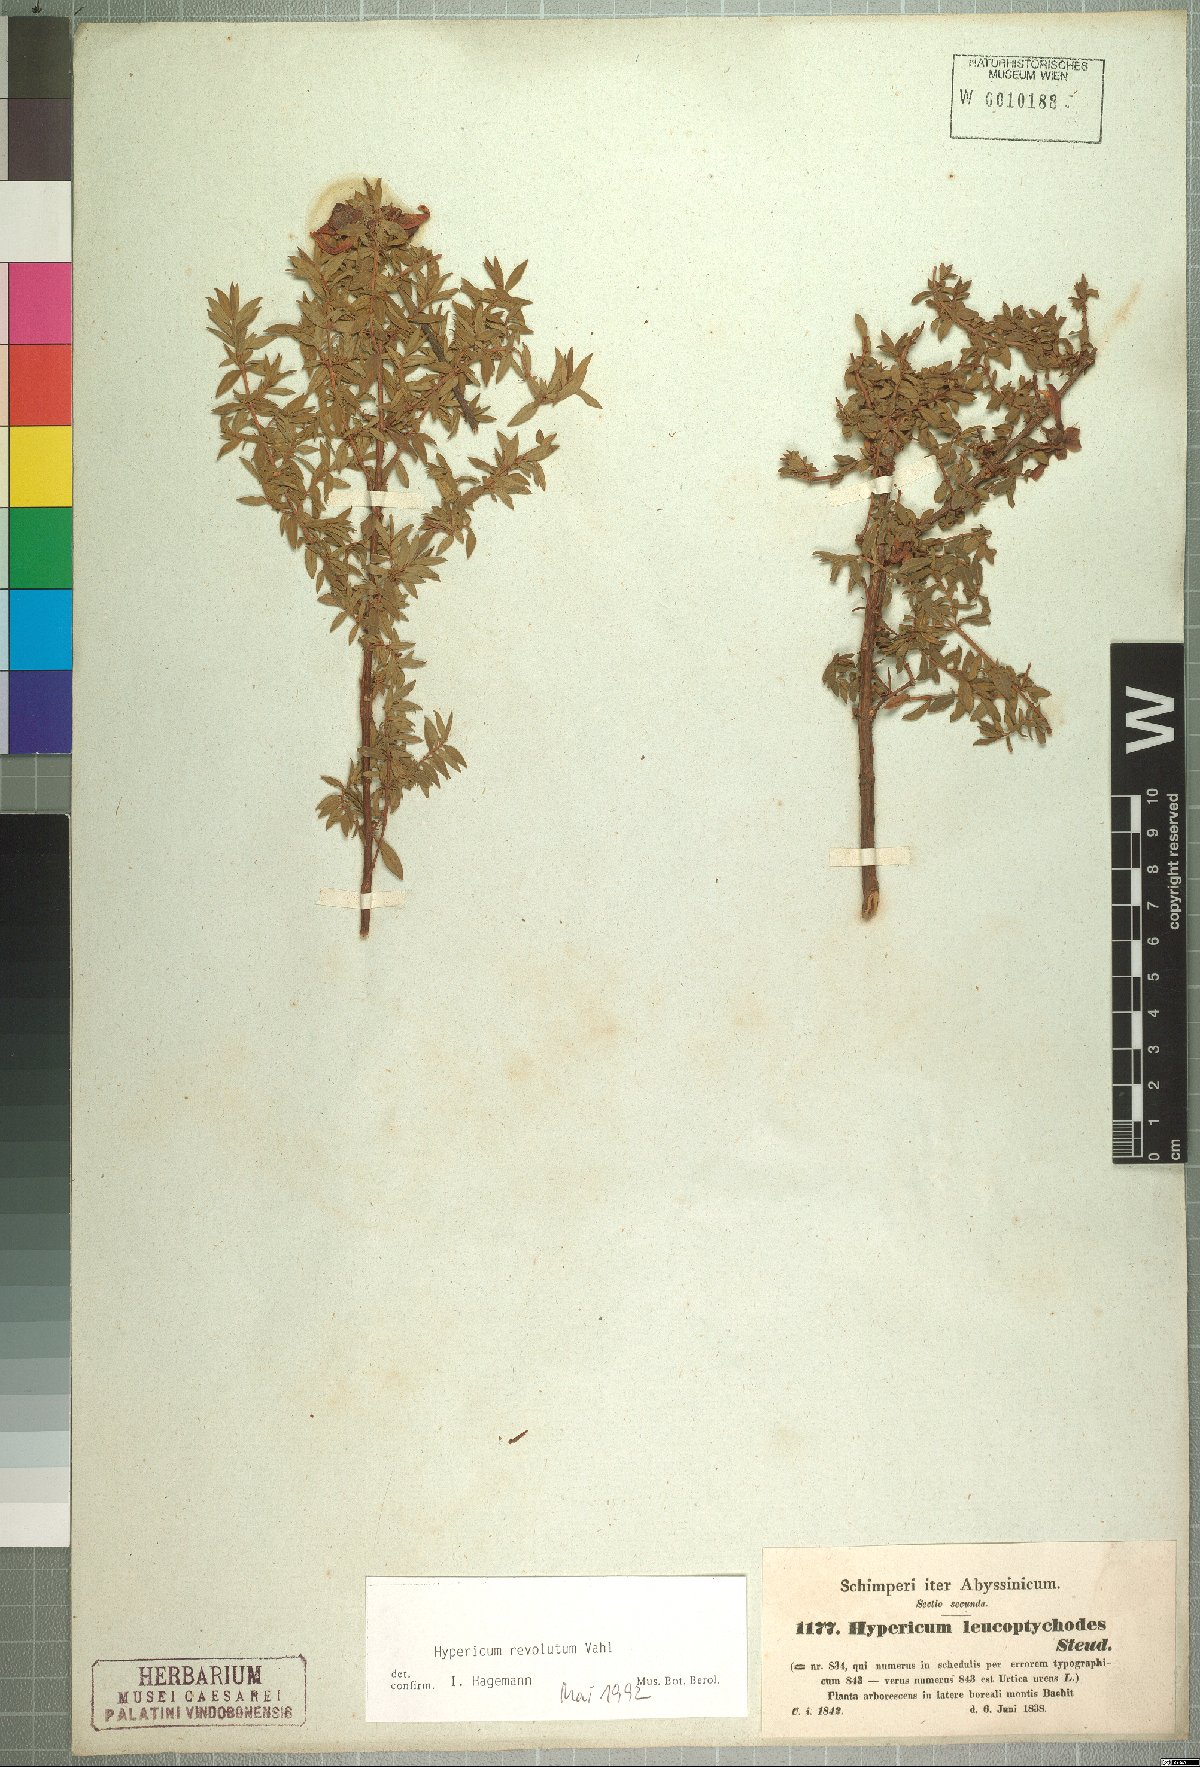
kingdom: Plantae
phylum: Tracheophyta
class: Magnoliopsida
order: Malpighiales
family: Hypericaceae
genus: Hypericum
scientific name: Hypericum revolutum
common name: Curry bush
